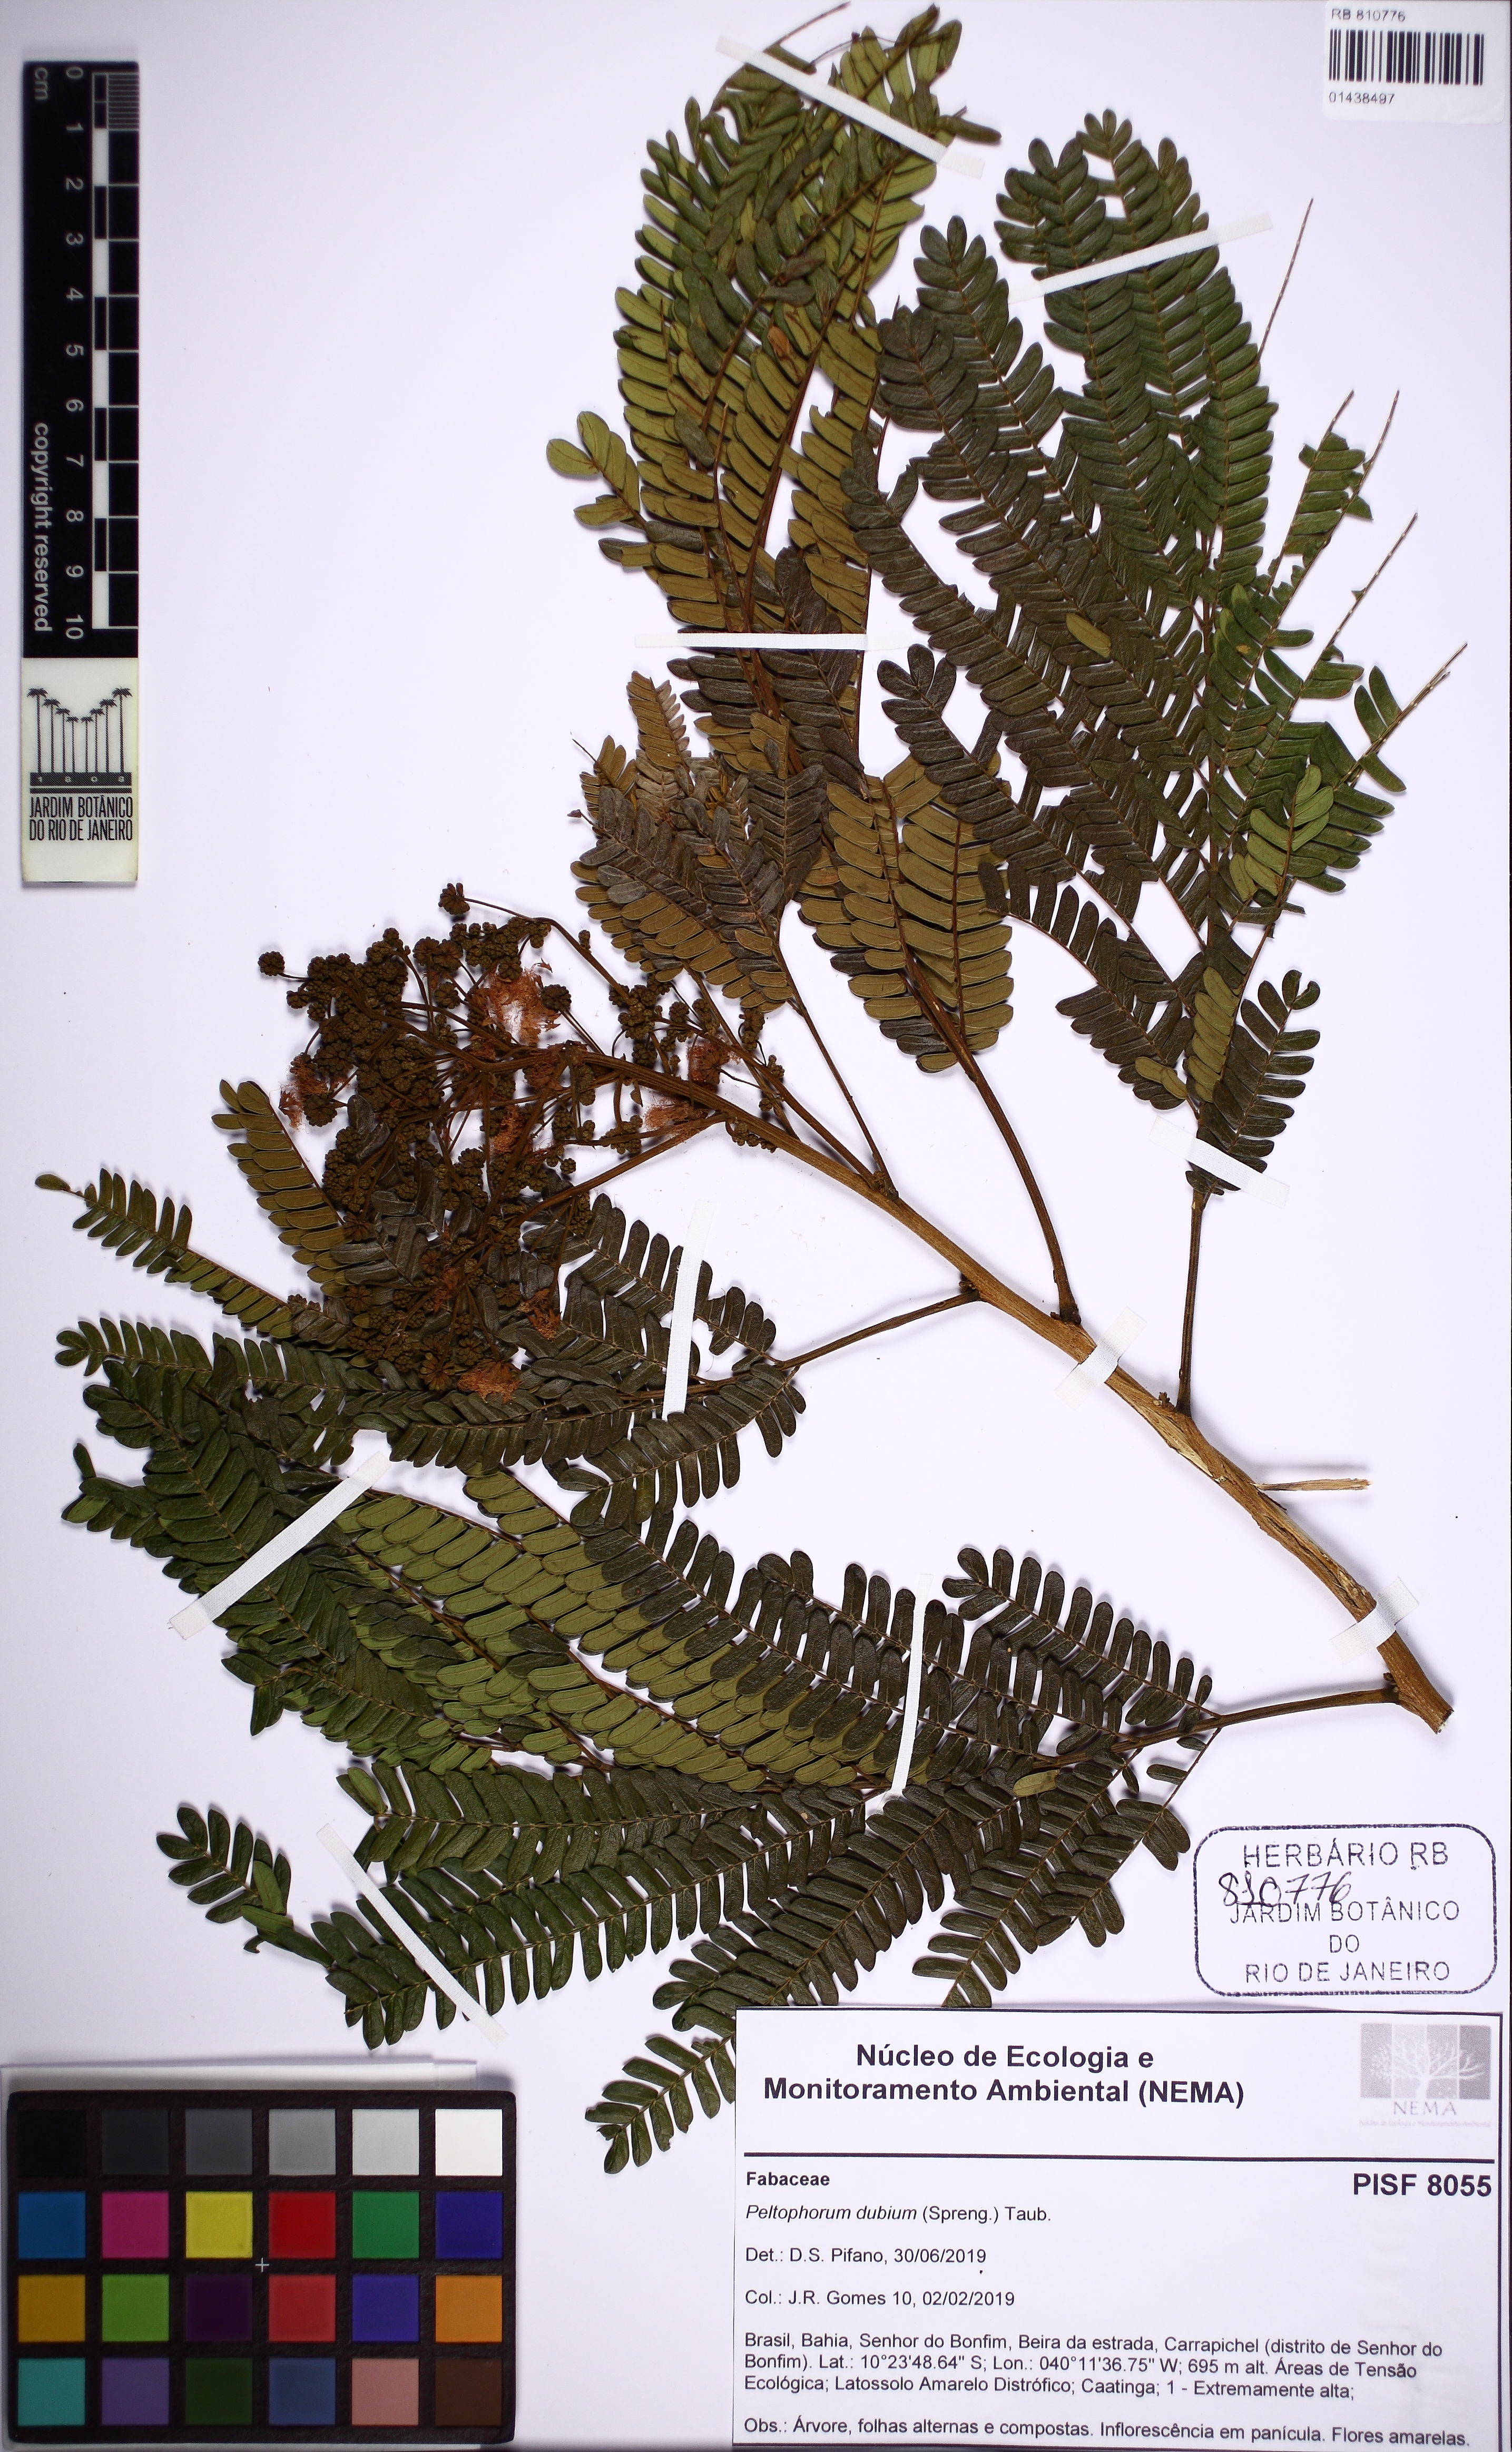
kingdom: Plantae
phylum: Tracheophyta
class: Magnoliopsida
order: Fabales
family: Fabaceae
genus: Peltophorum
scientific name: Peltophorum dubium
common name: Horsebush
